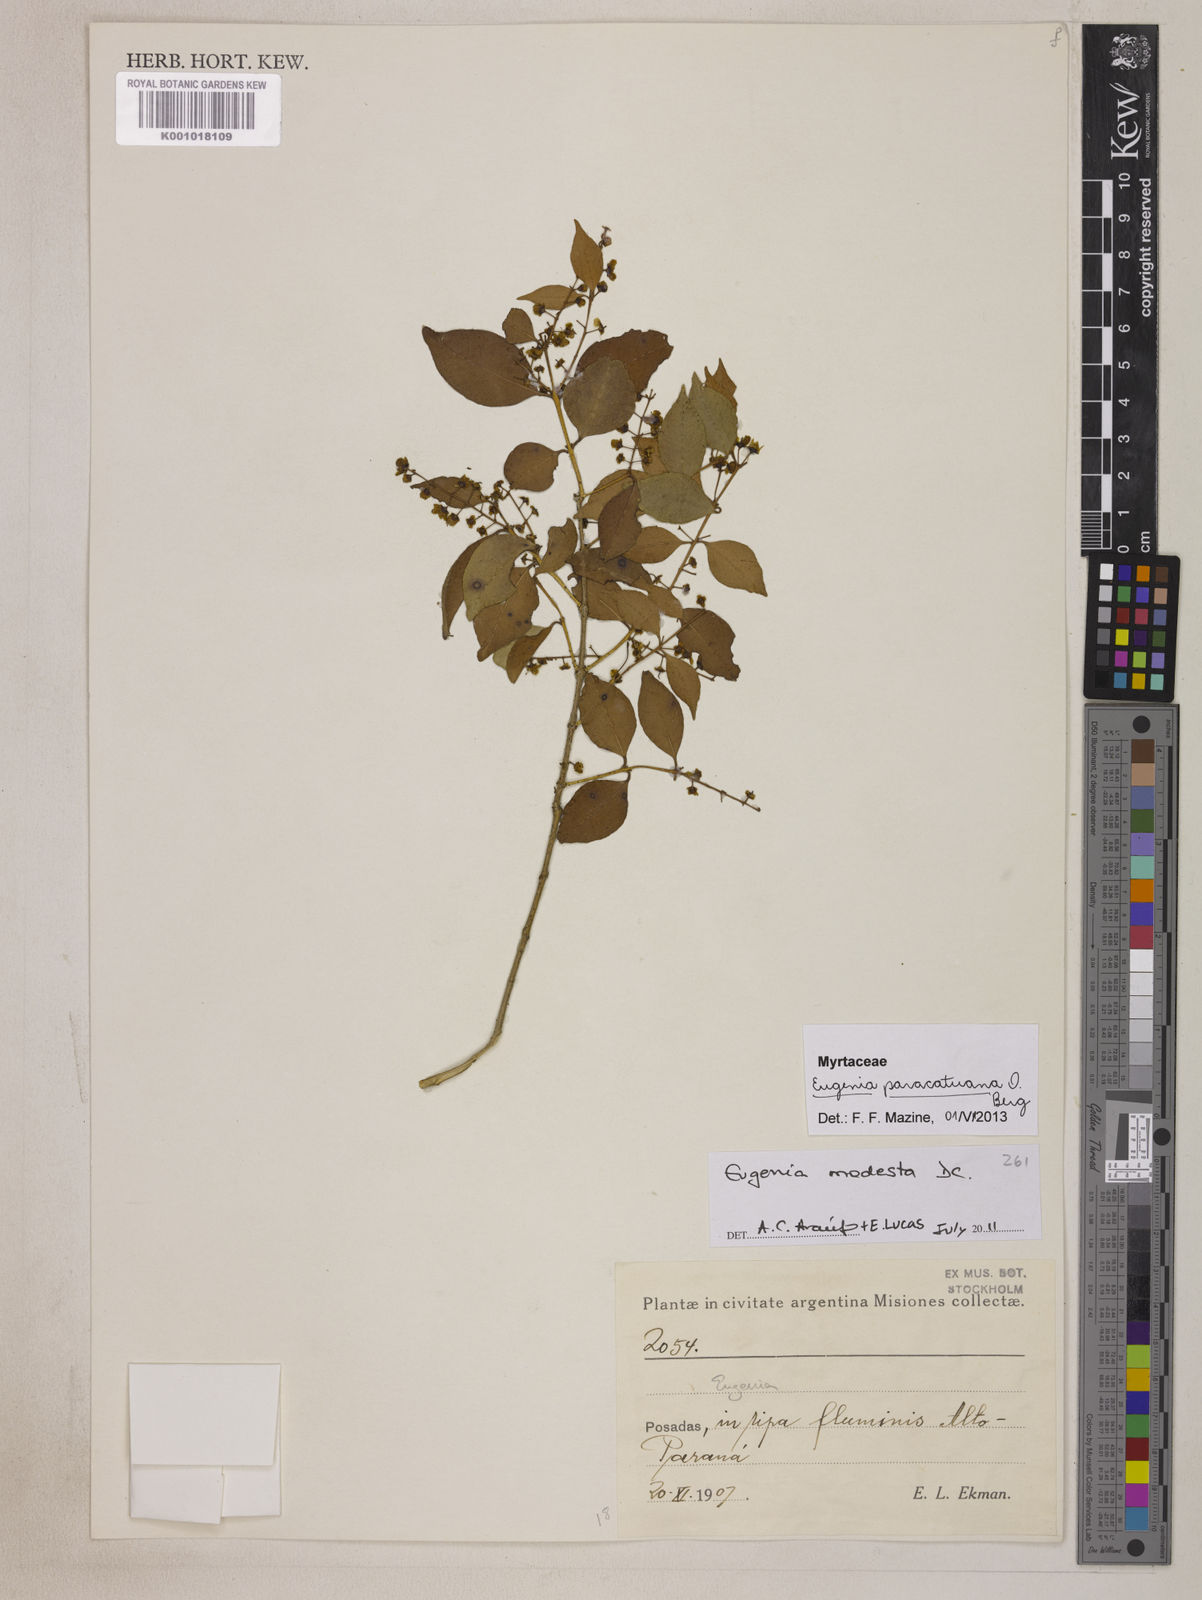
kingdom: Plantae
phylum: Tracheophyta
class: Magnoliopsida
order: Myrtales
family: Myrtaceae
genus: Eugenia
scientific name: Eugenia moraviana
